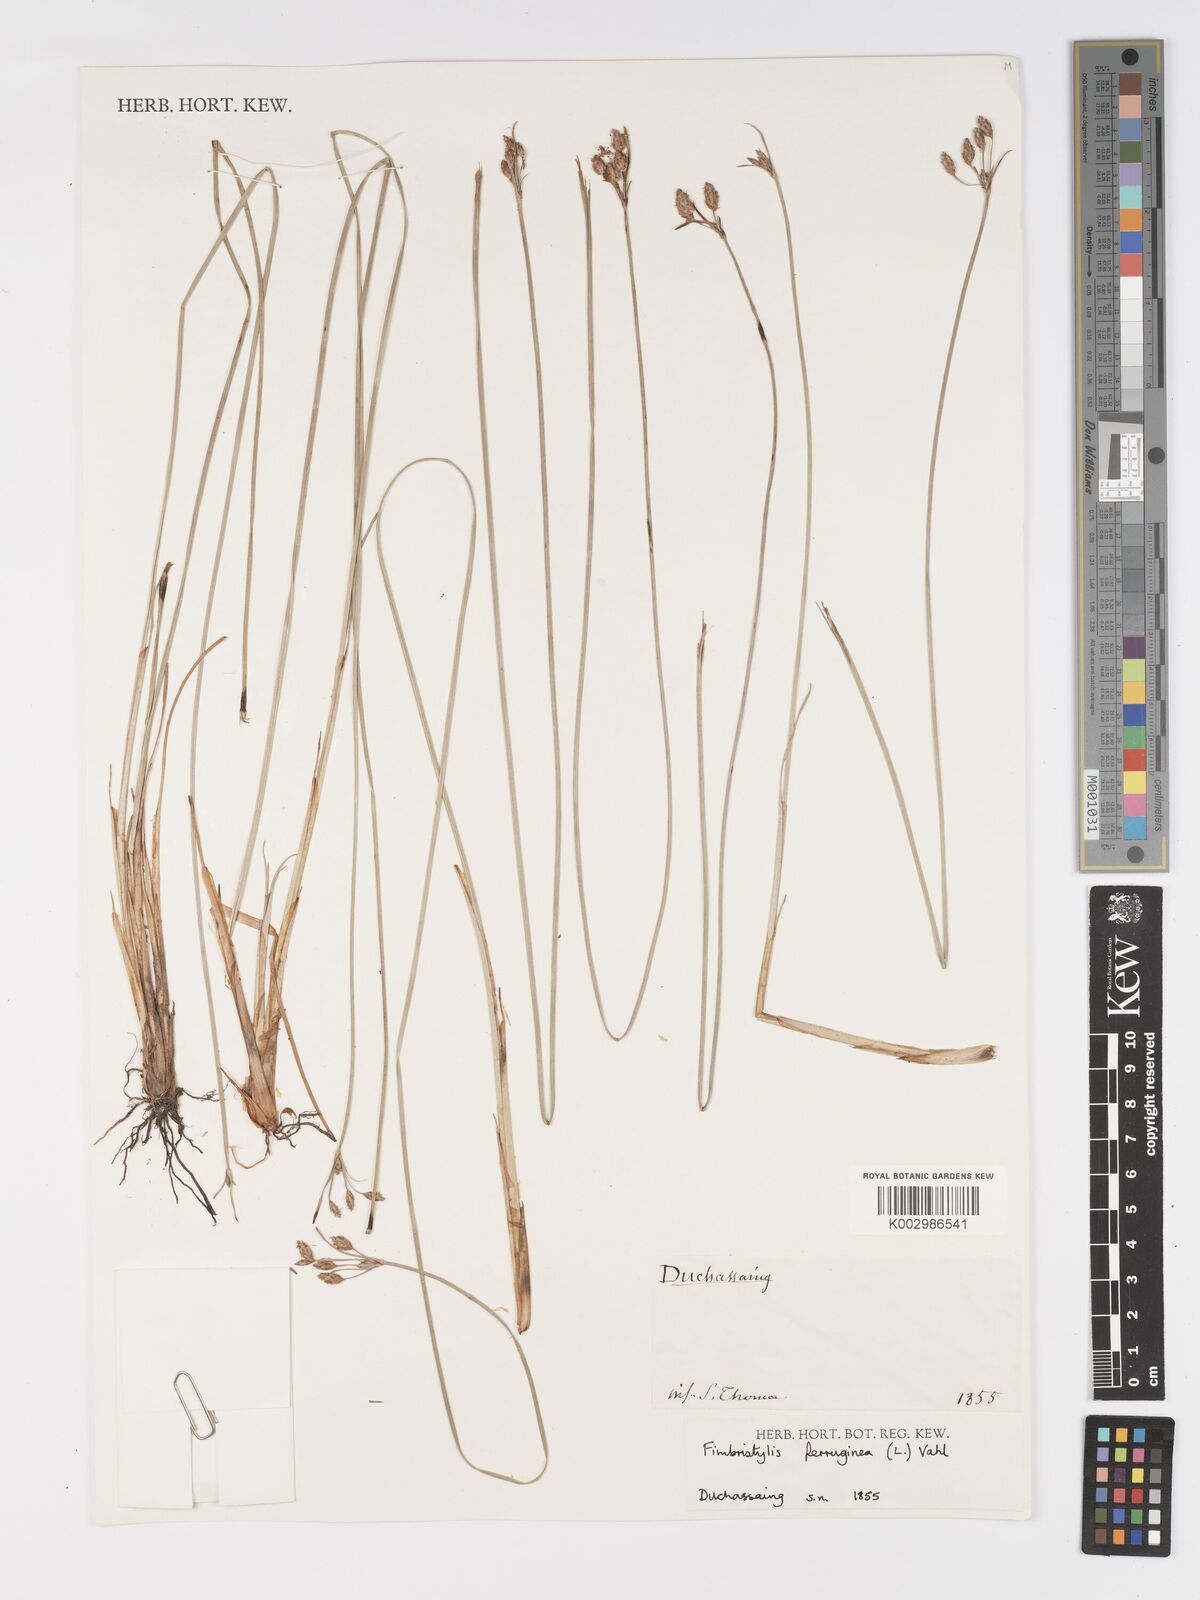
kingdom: Plantae
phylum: Tracheophyta
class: Liliopsida
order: Poales
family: Cyperaceae
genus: Fimbristylis
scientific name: Fimbristylis ferruginea
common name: West indian fimbry
